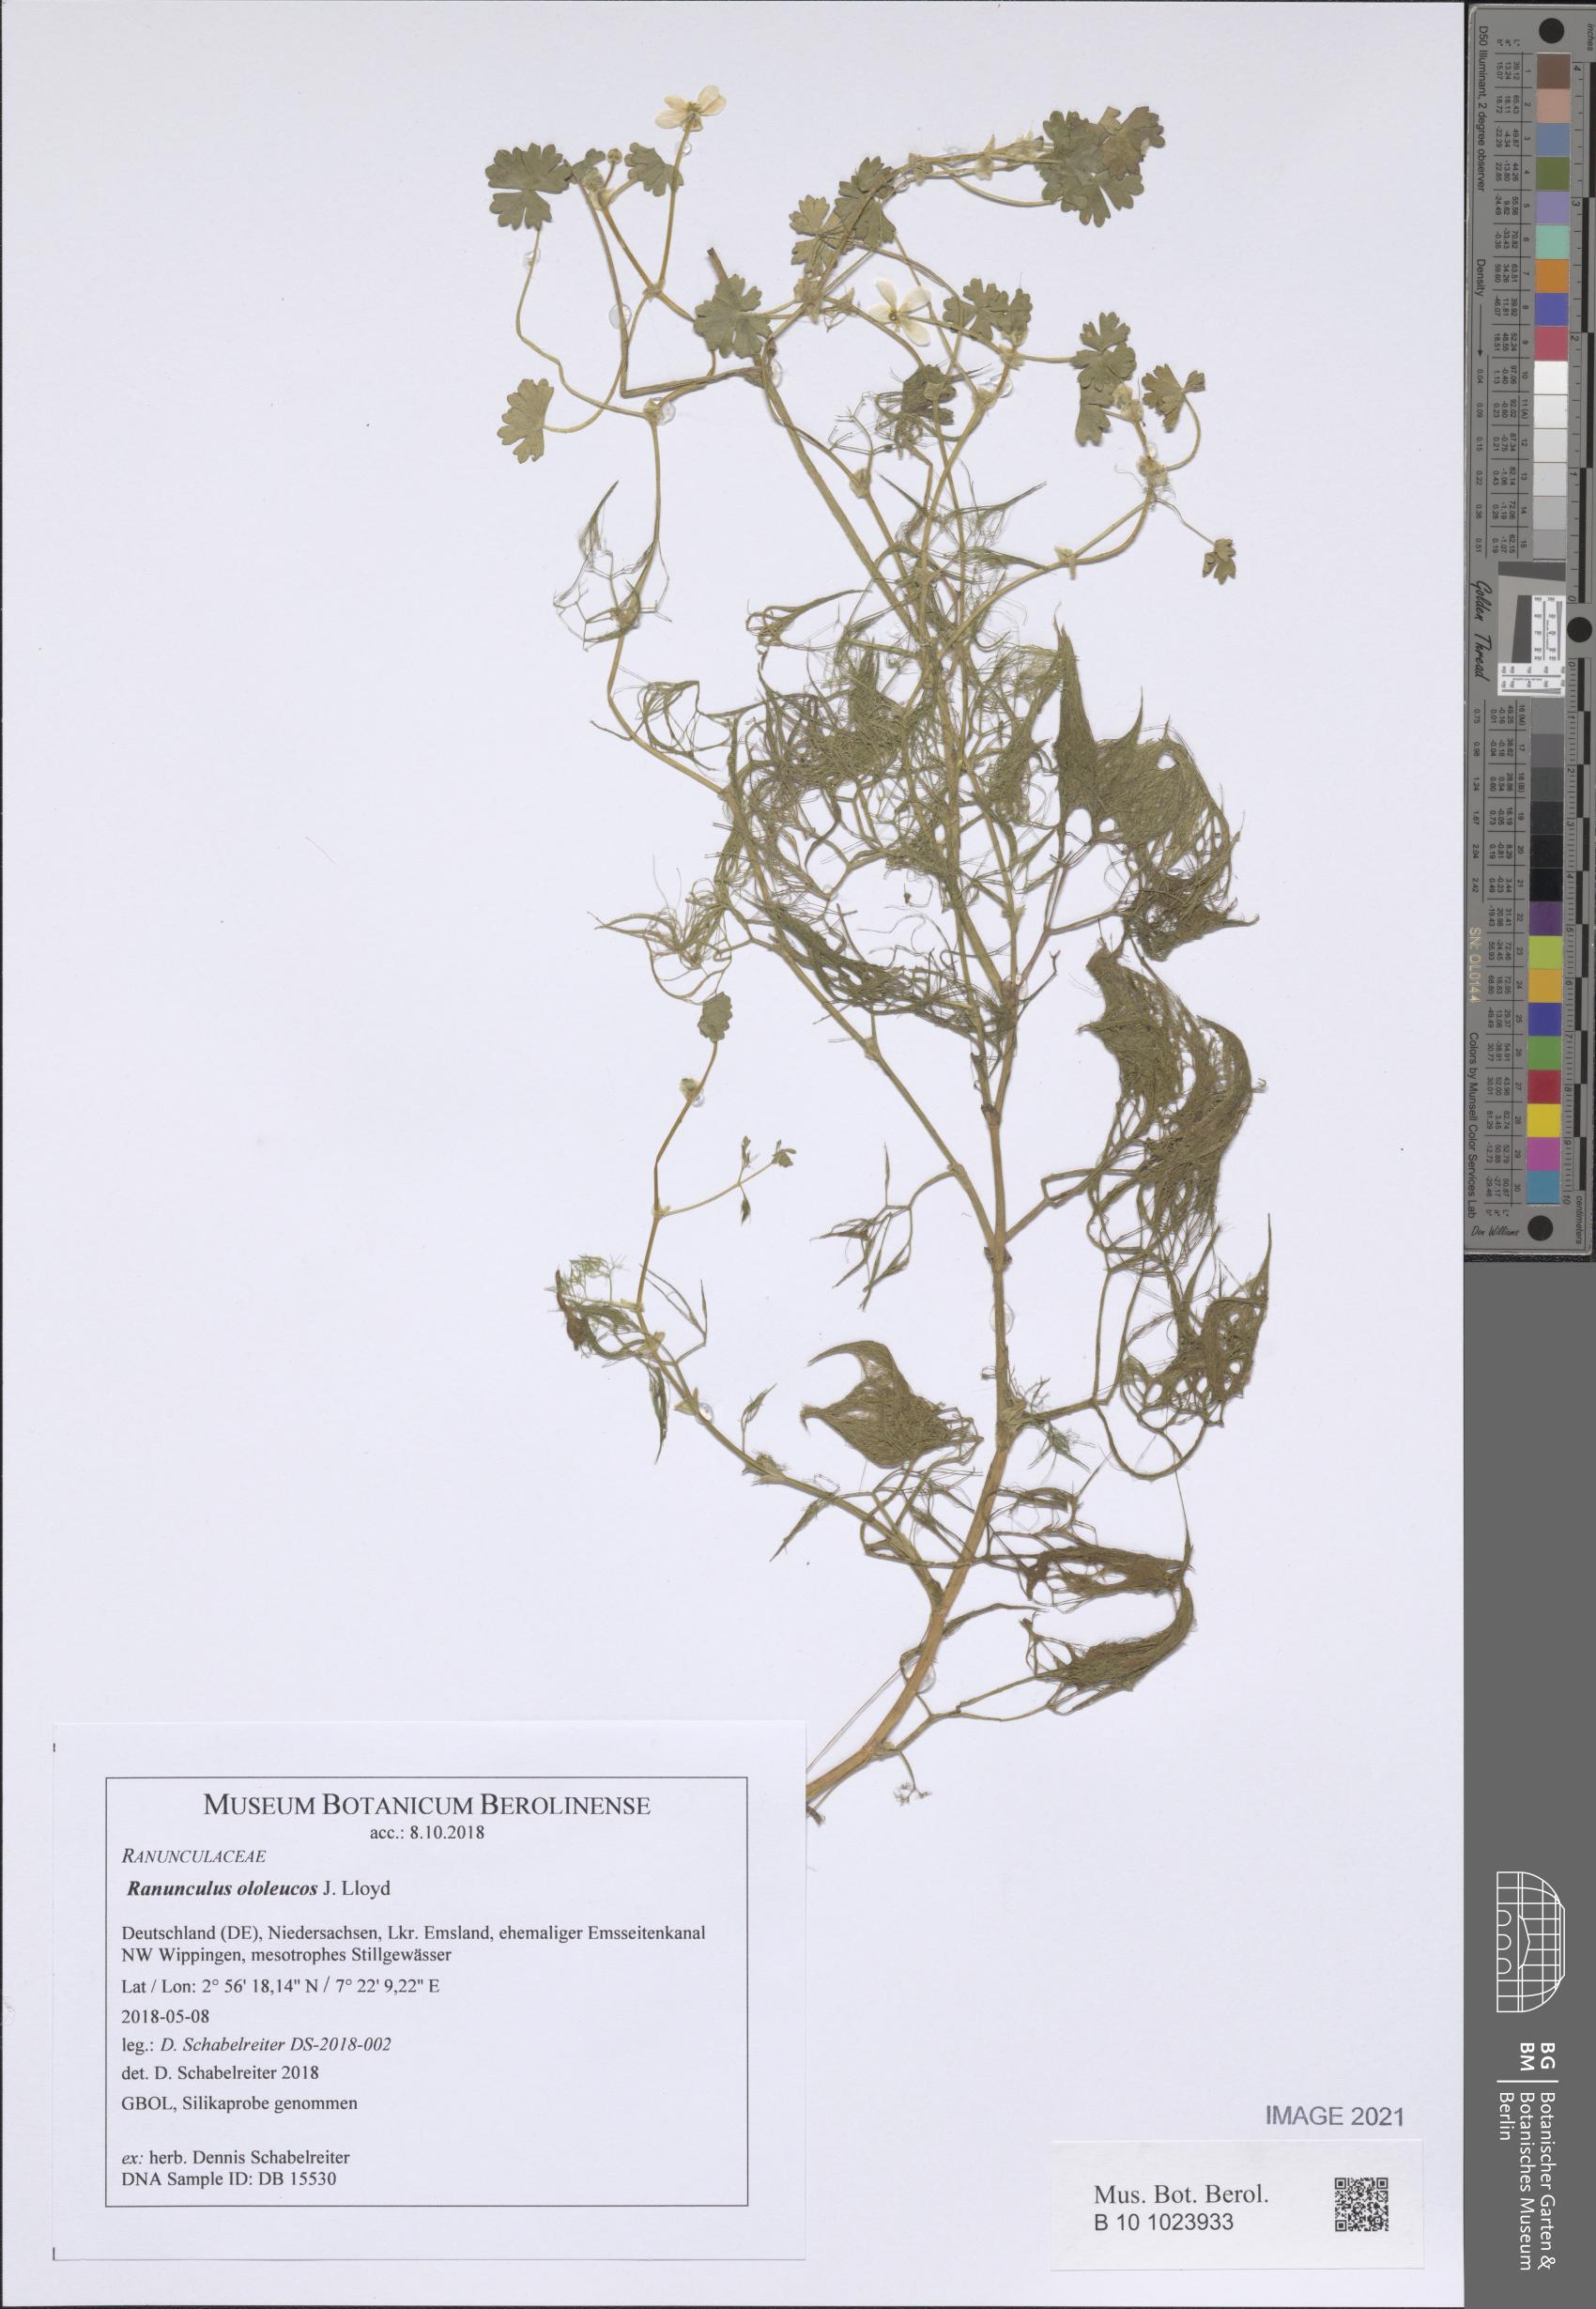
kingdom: Plantae
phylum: Tracheophyta
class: Magnoliopsida
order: Ranunculales
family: Ranunculaceae
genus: Ranunculus
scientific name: Ranunculus ololeucos
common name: White-flowered buttercup
